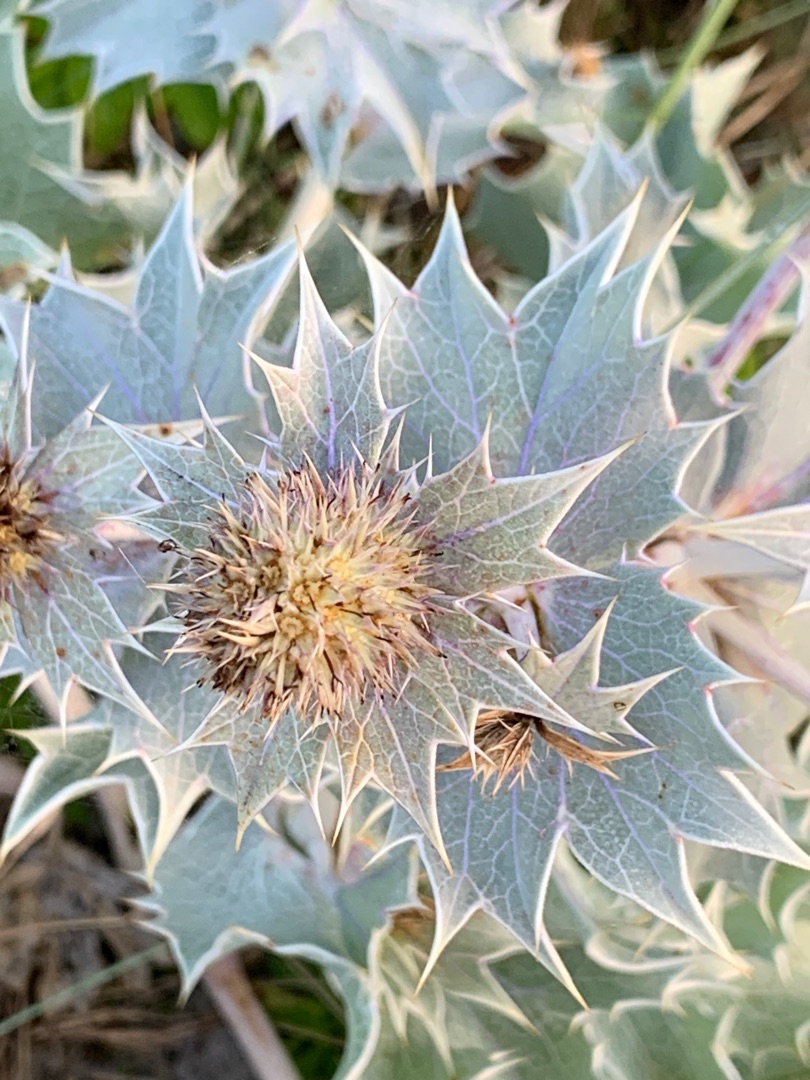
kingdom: Plantae
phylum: Tracheophyta
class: Magnoliopsida
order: Apiales
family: Apiaceae
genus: Eryngium
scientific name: Eryngium maritimum
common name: Strand-mandstro
